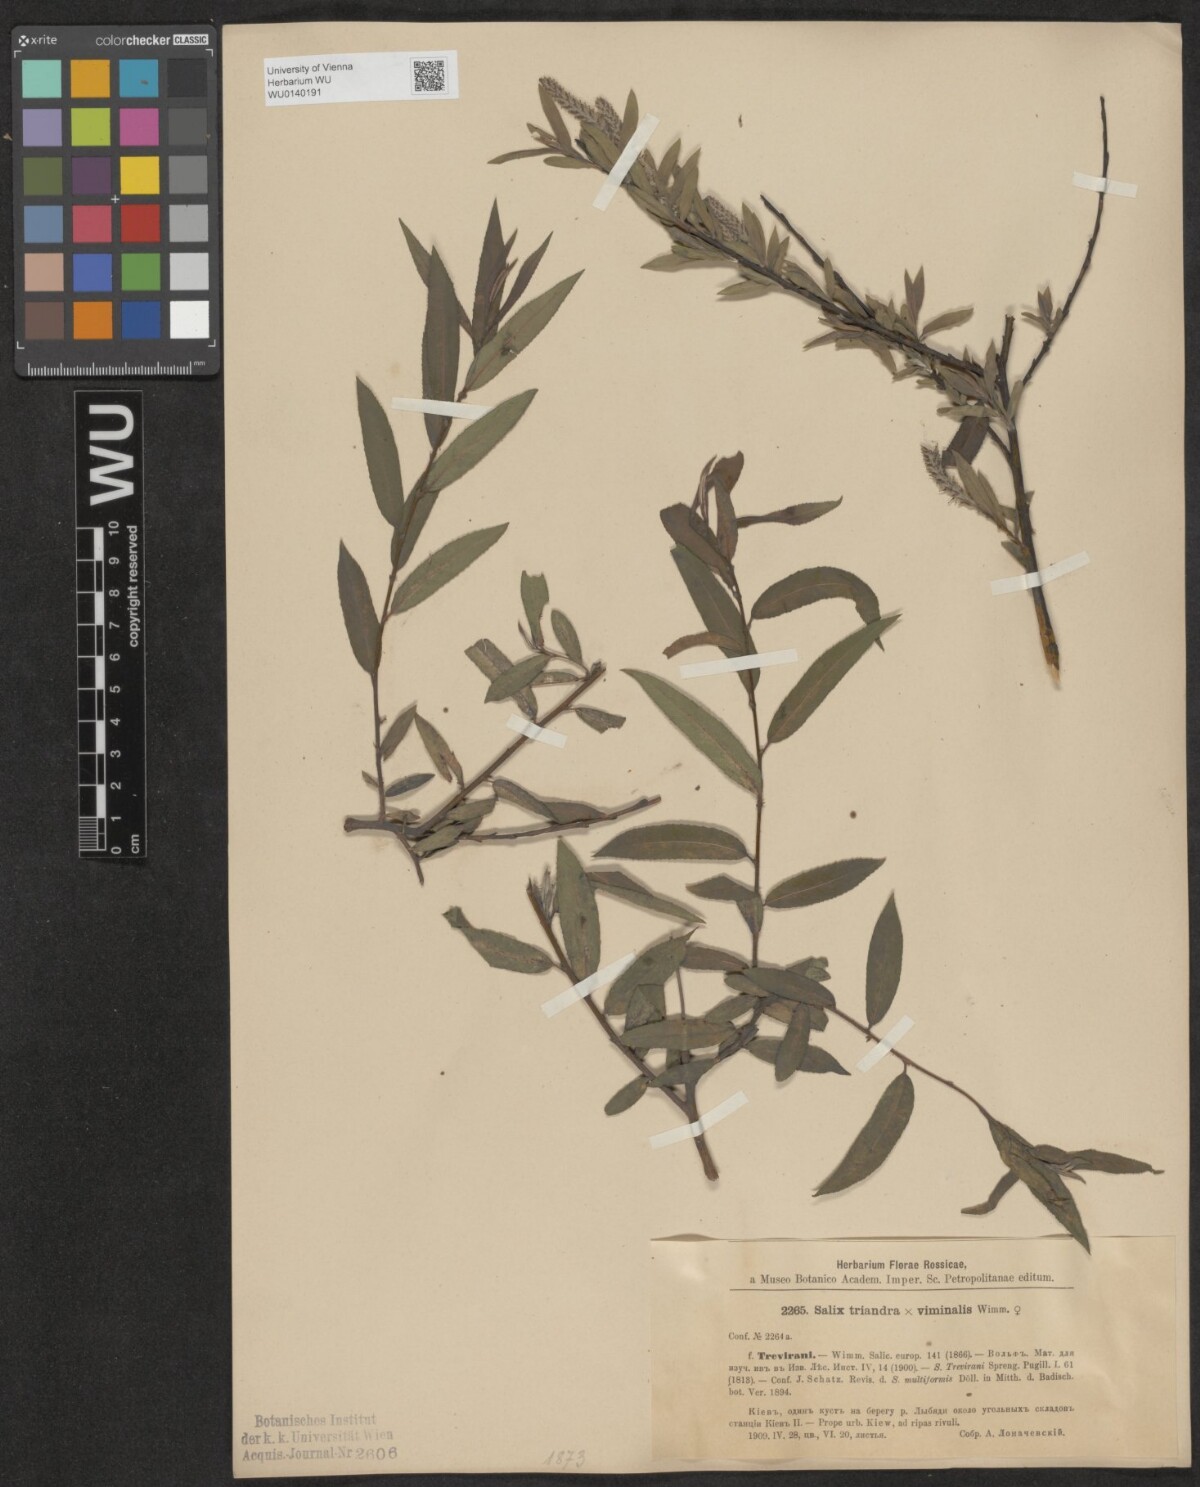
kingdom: Plantae
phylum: Tracheophyta
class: Magnoliopsida
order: Malpighiales
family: Salicaceae
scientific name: Salicaceae
